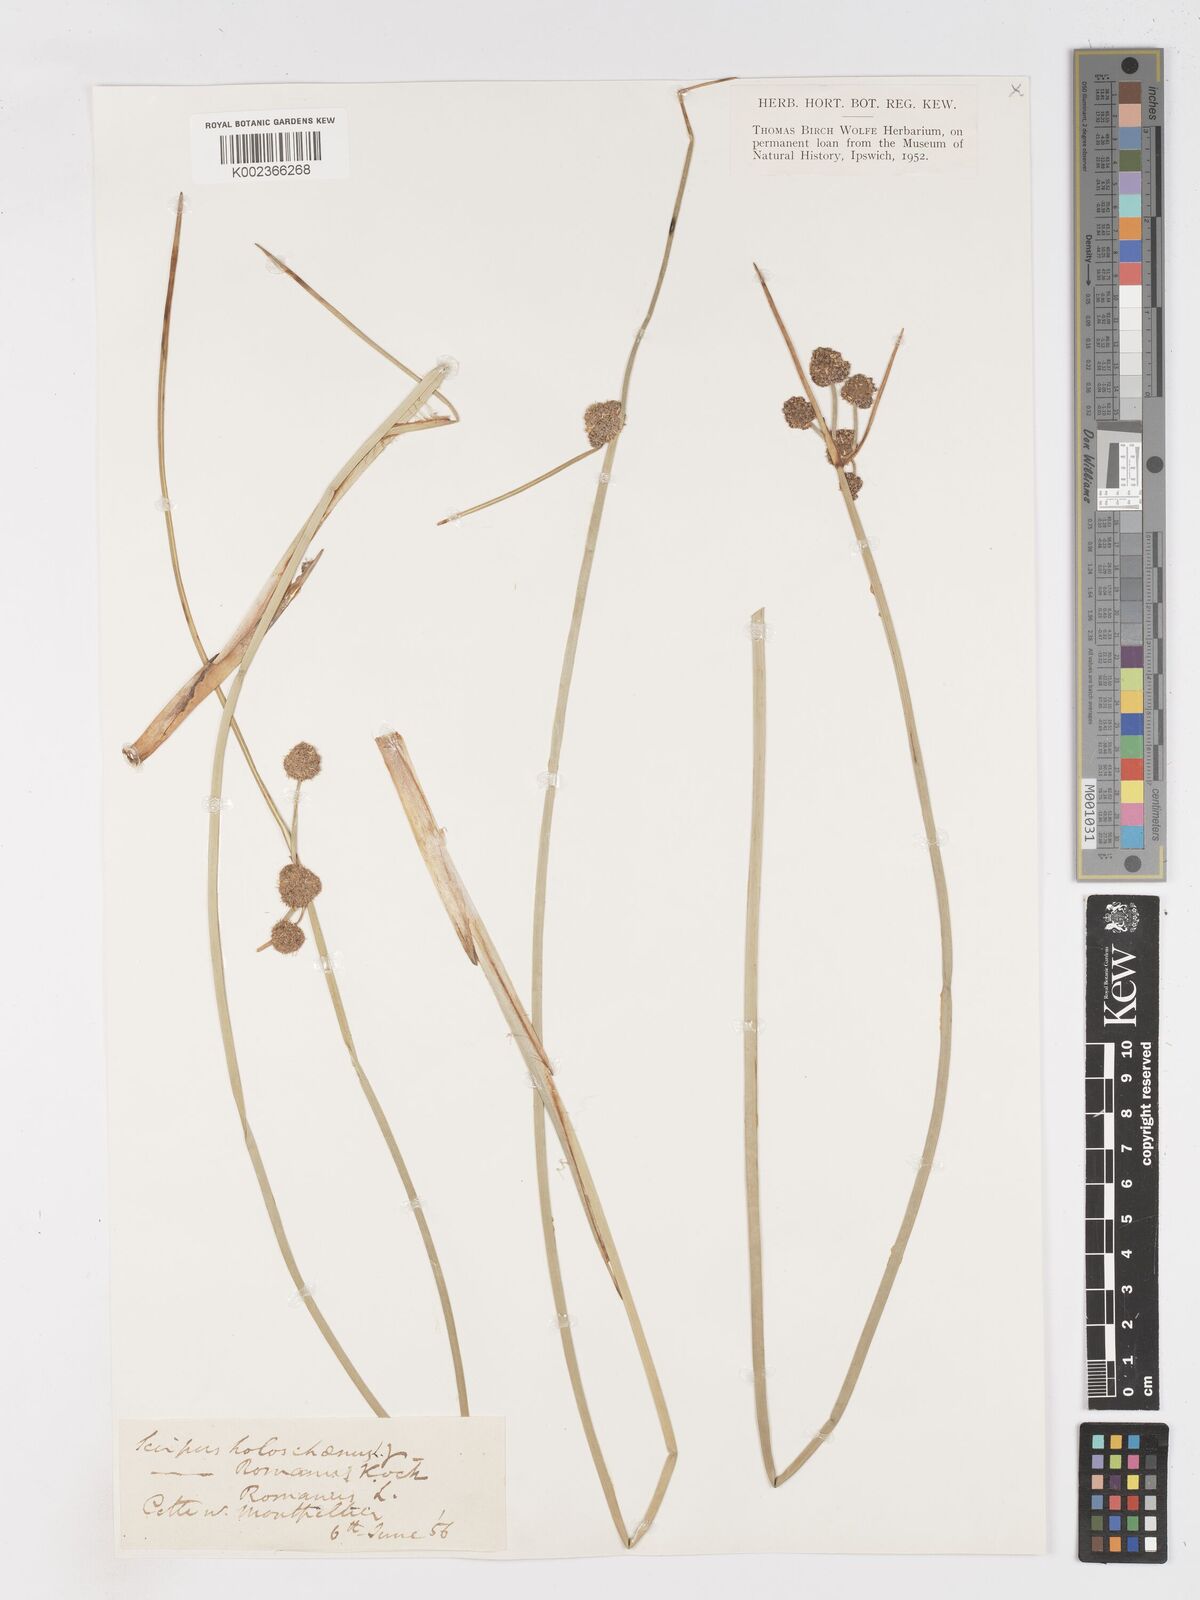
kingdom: Plantae
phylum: Tracheophyta
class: Liliopsida
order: Poales
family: Cyperaceae
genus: Scirpoides
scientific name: Scirpoides holoschoenus
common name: Round-headed club-rush
